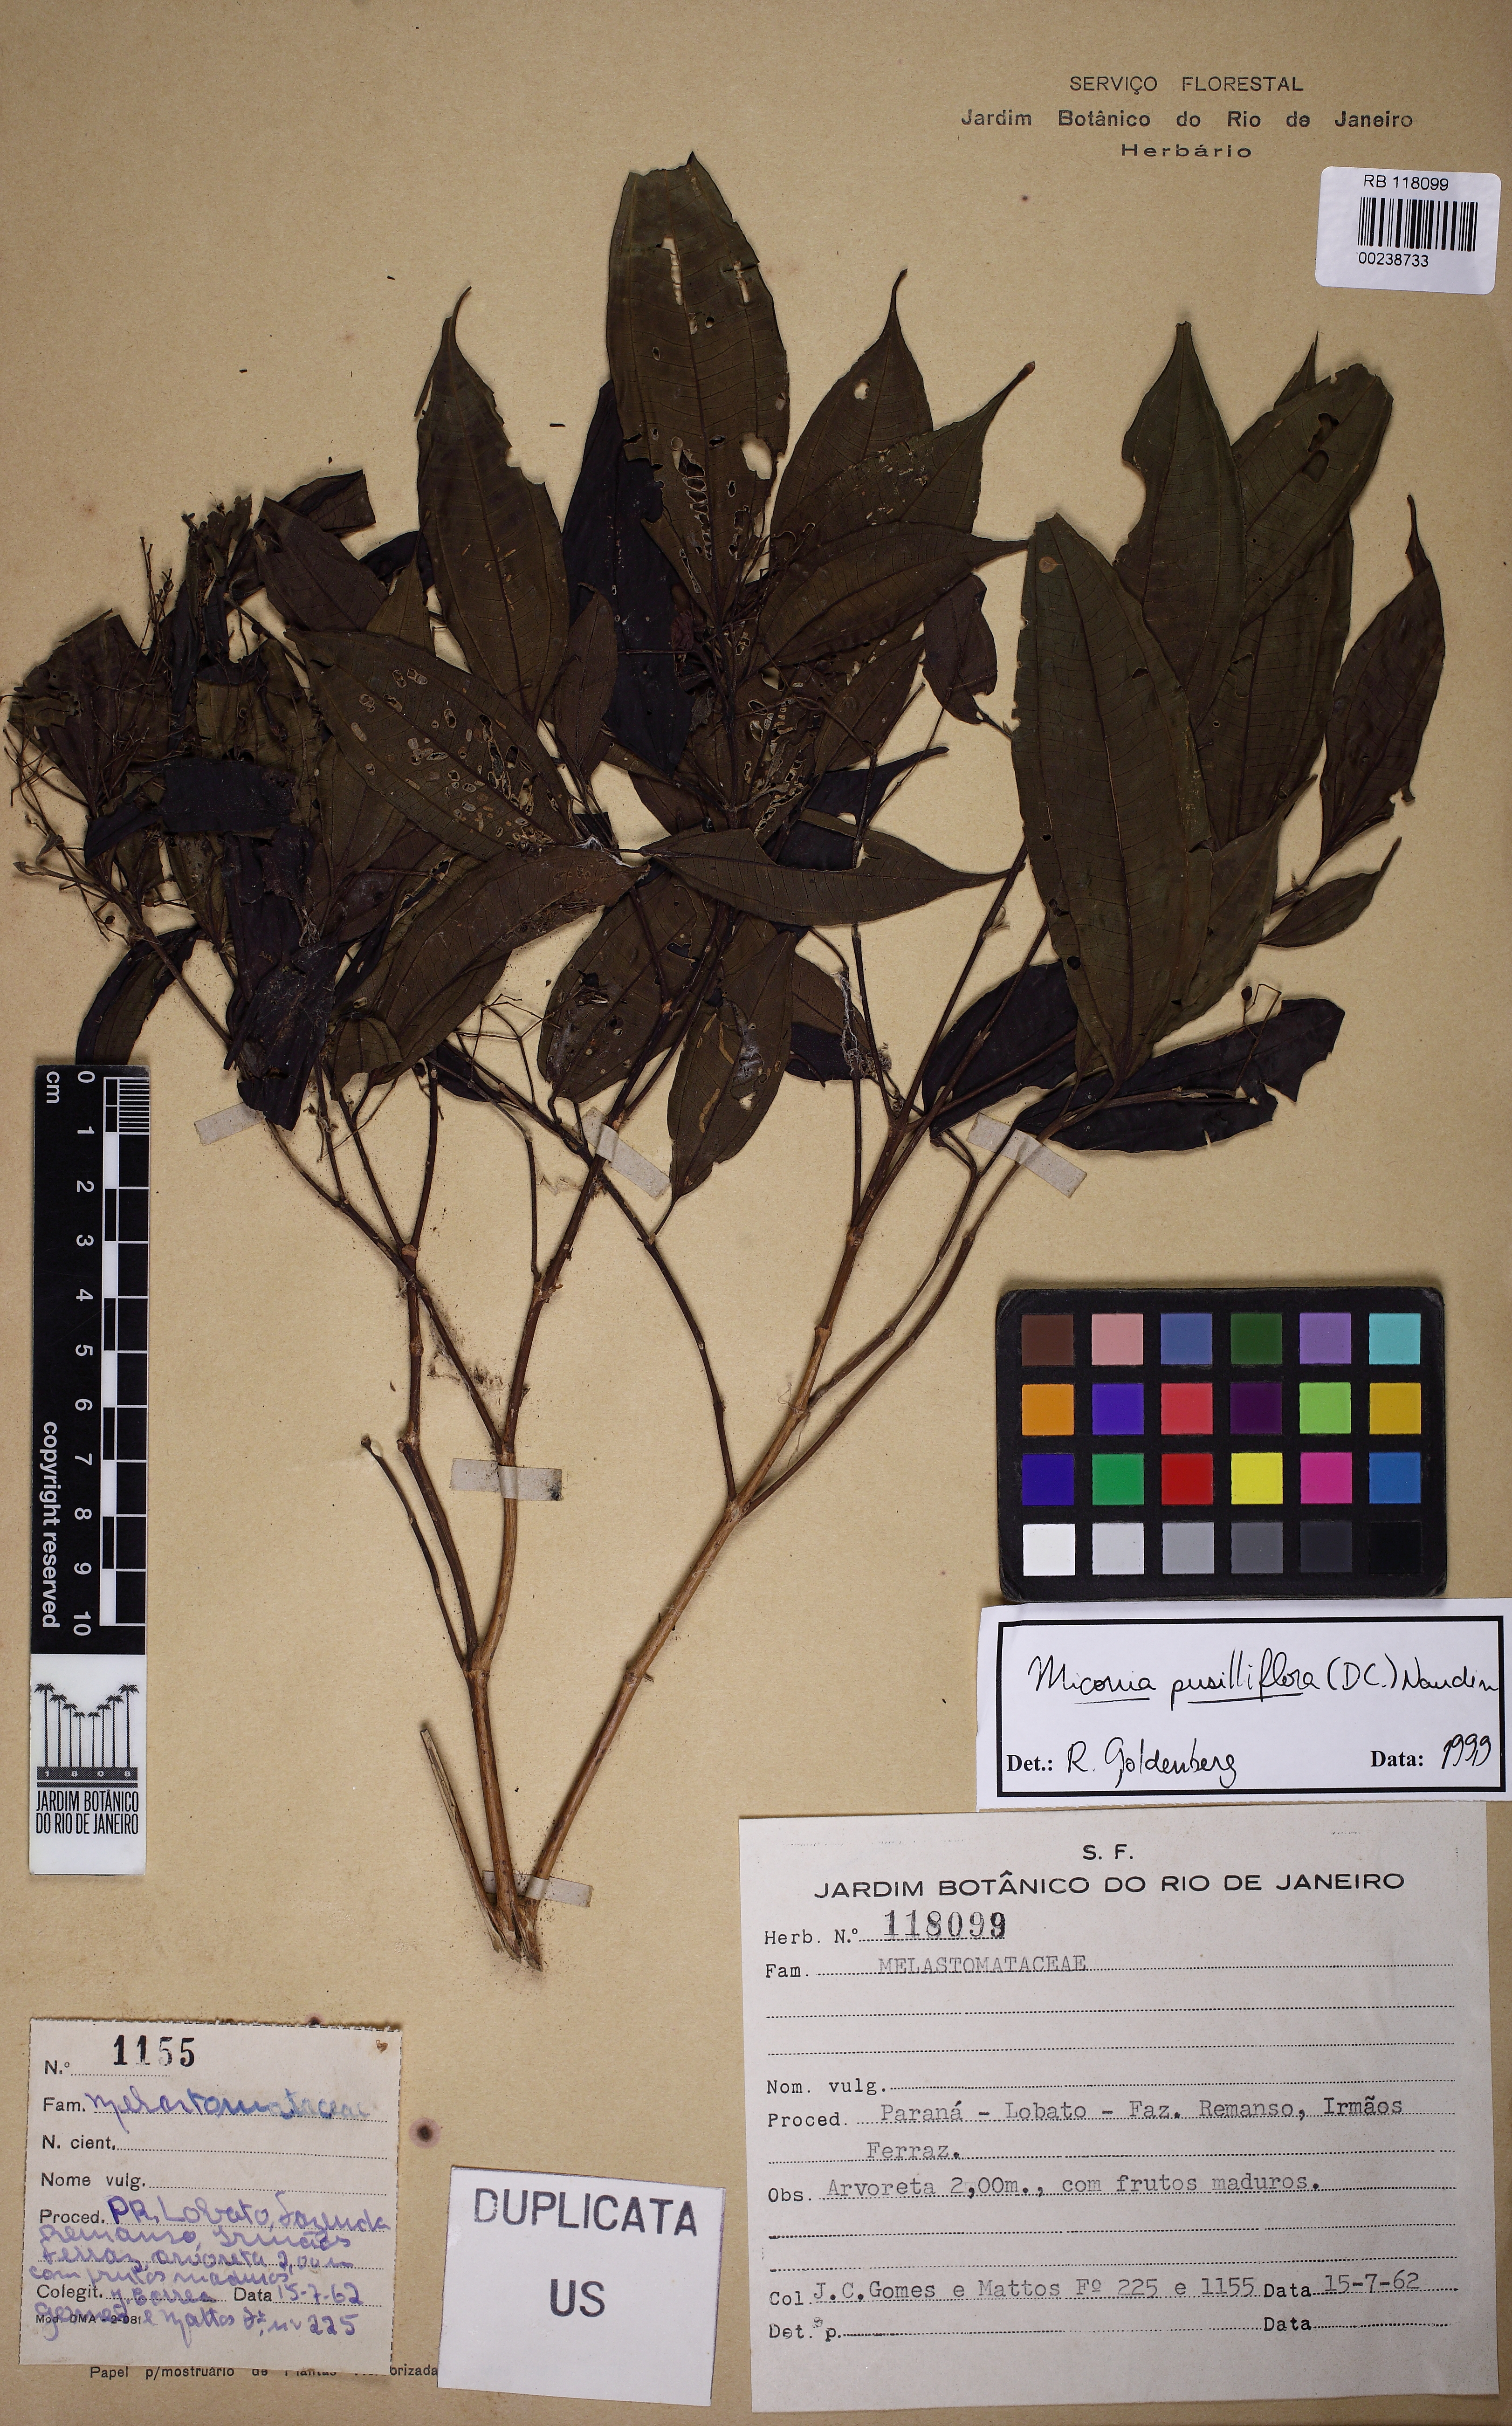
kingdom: Plantae
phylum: Tracheophyta
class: Magnoliopsida
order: Myrtales
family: Melastomataceae
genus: Miconia
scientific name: Miconia pusilliflora
